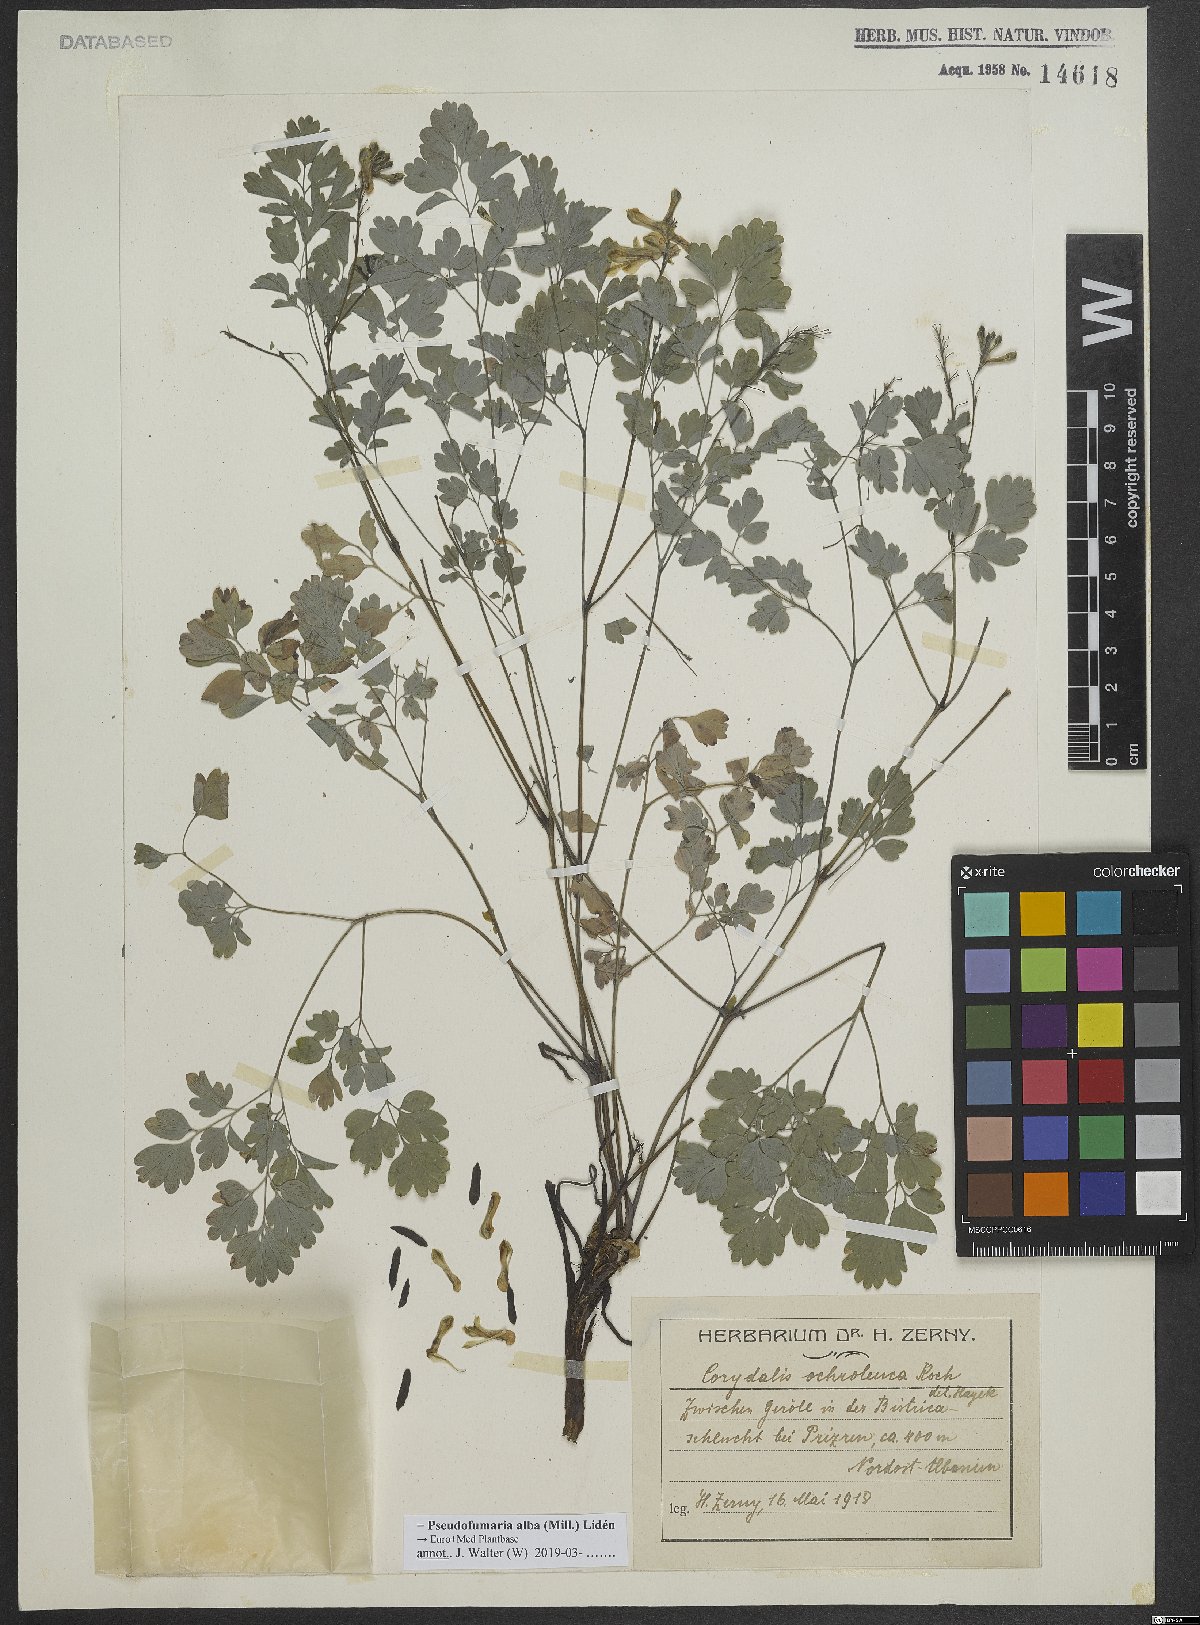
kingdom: Plantae
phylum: Tracheophyta
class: Magnoliopsida
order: Ranunculales
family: Papaveraceae
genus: Pseudofumaria
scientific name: Pseudofumaria alba
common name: Pale corydalis
